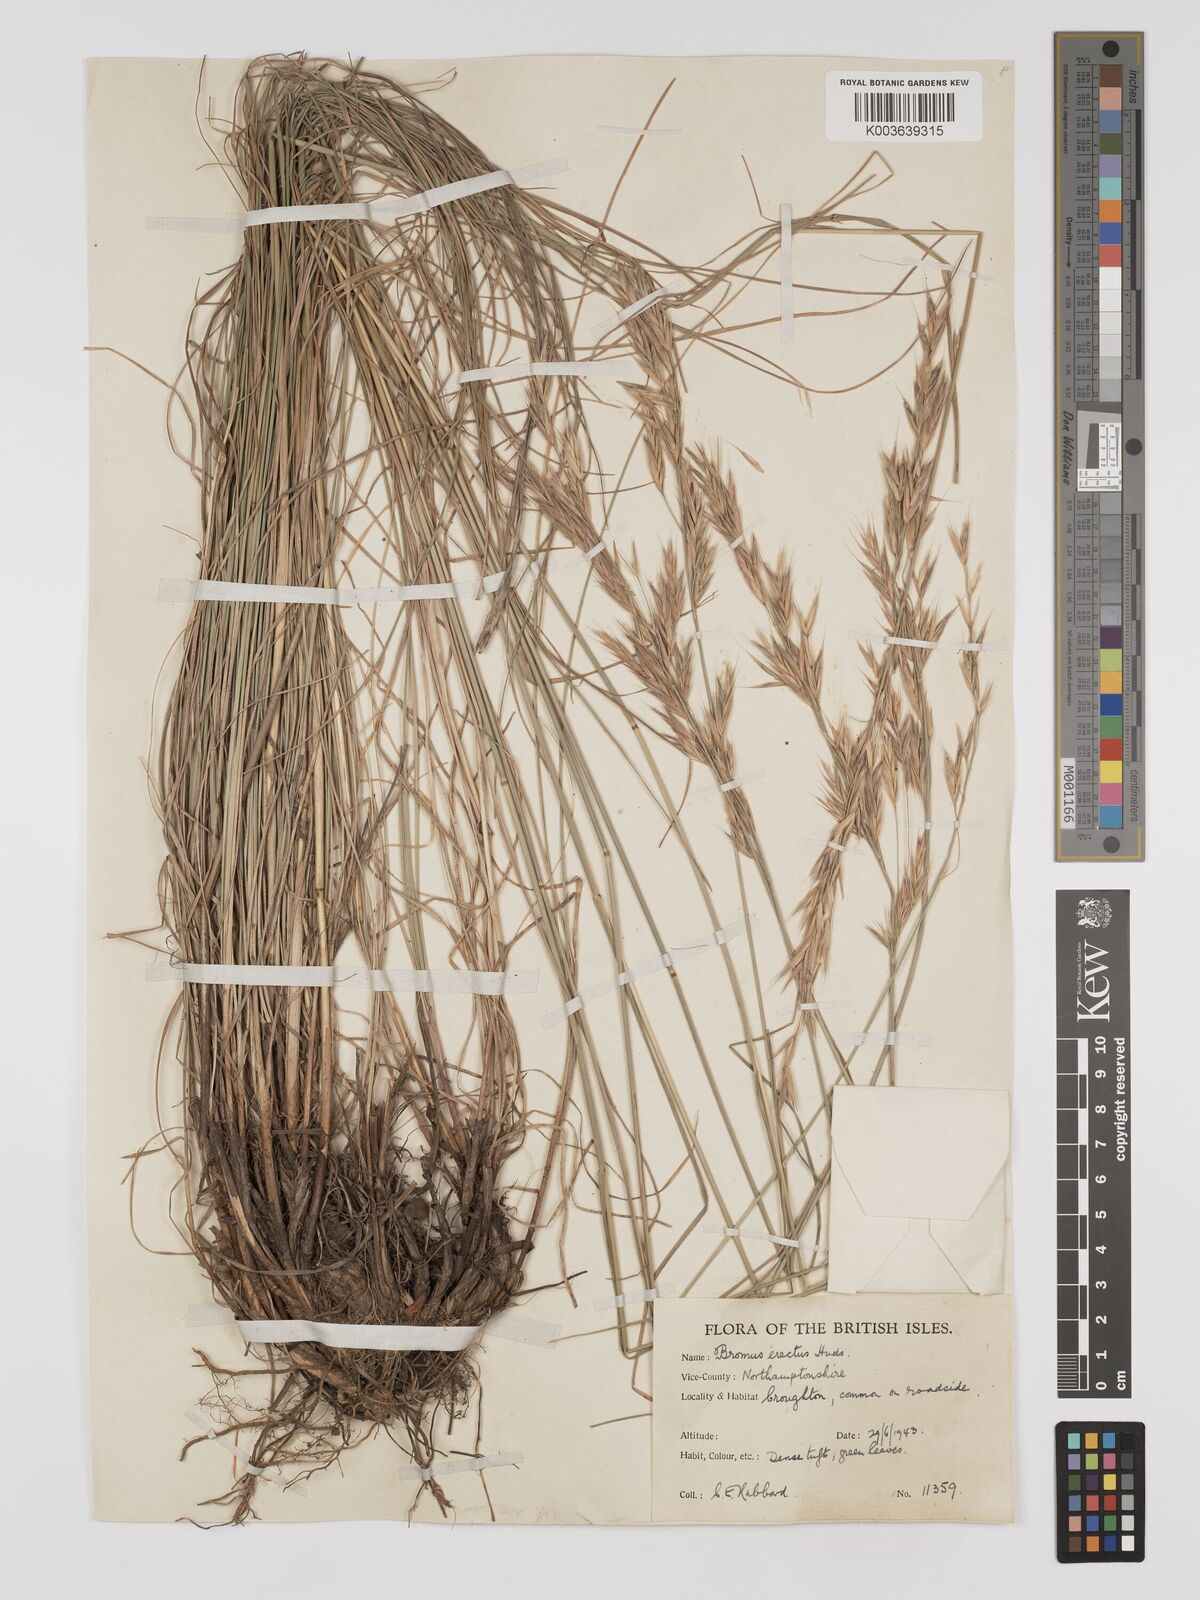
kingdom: Plantae
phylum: Tracheophyta
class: Liliopsida
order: Poales
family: Poaceae
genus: Bromus
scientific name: Bromus erectus
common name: Erect brome
